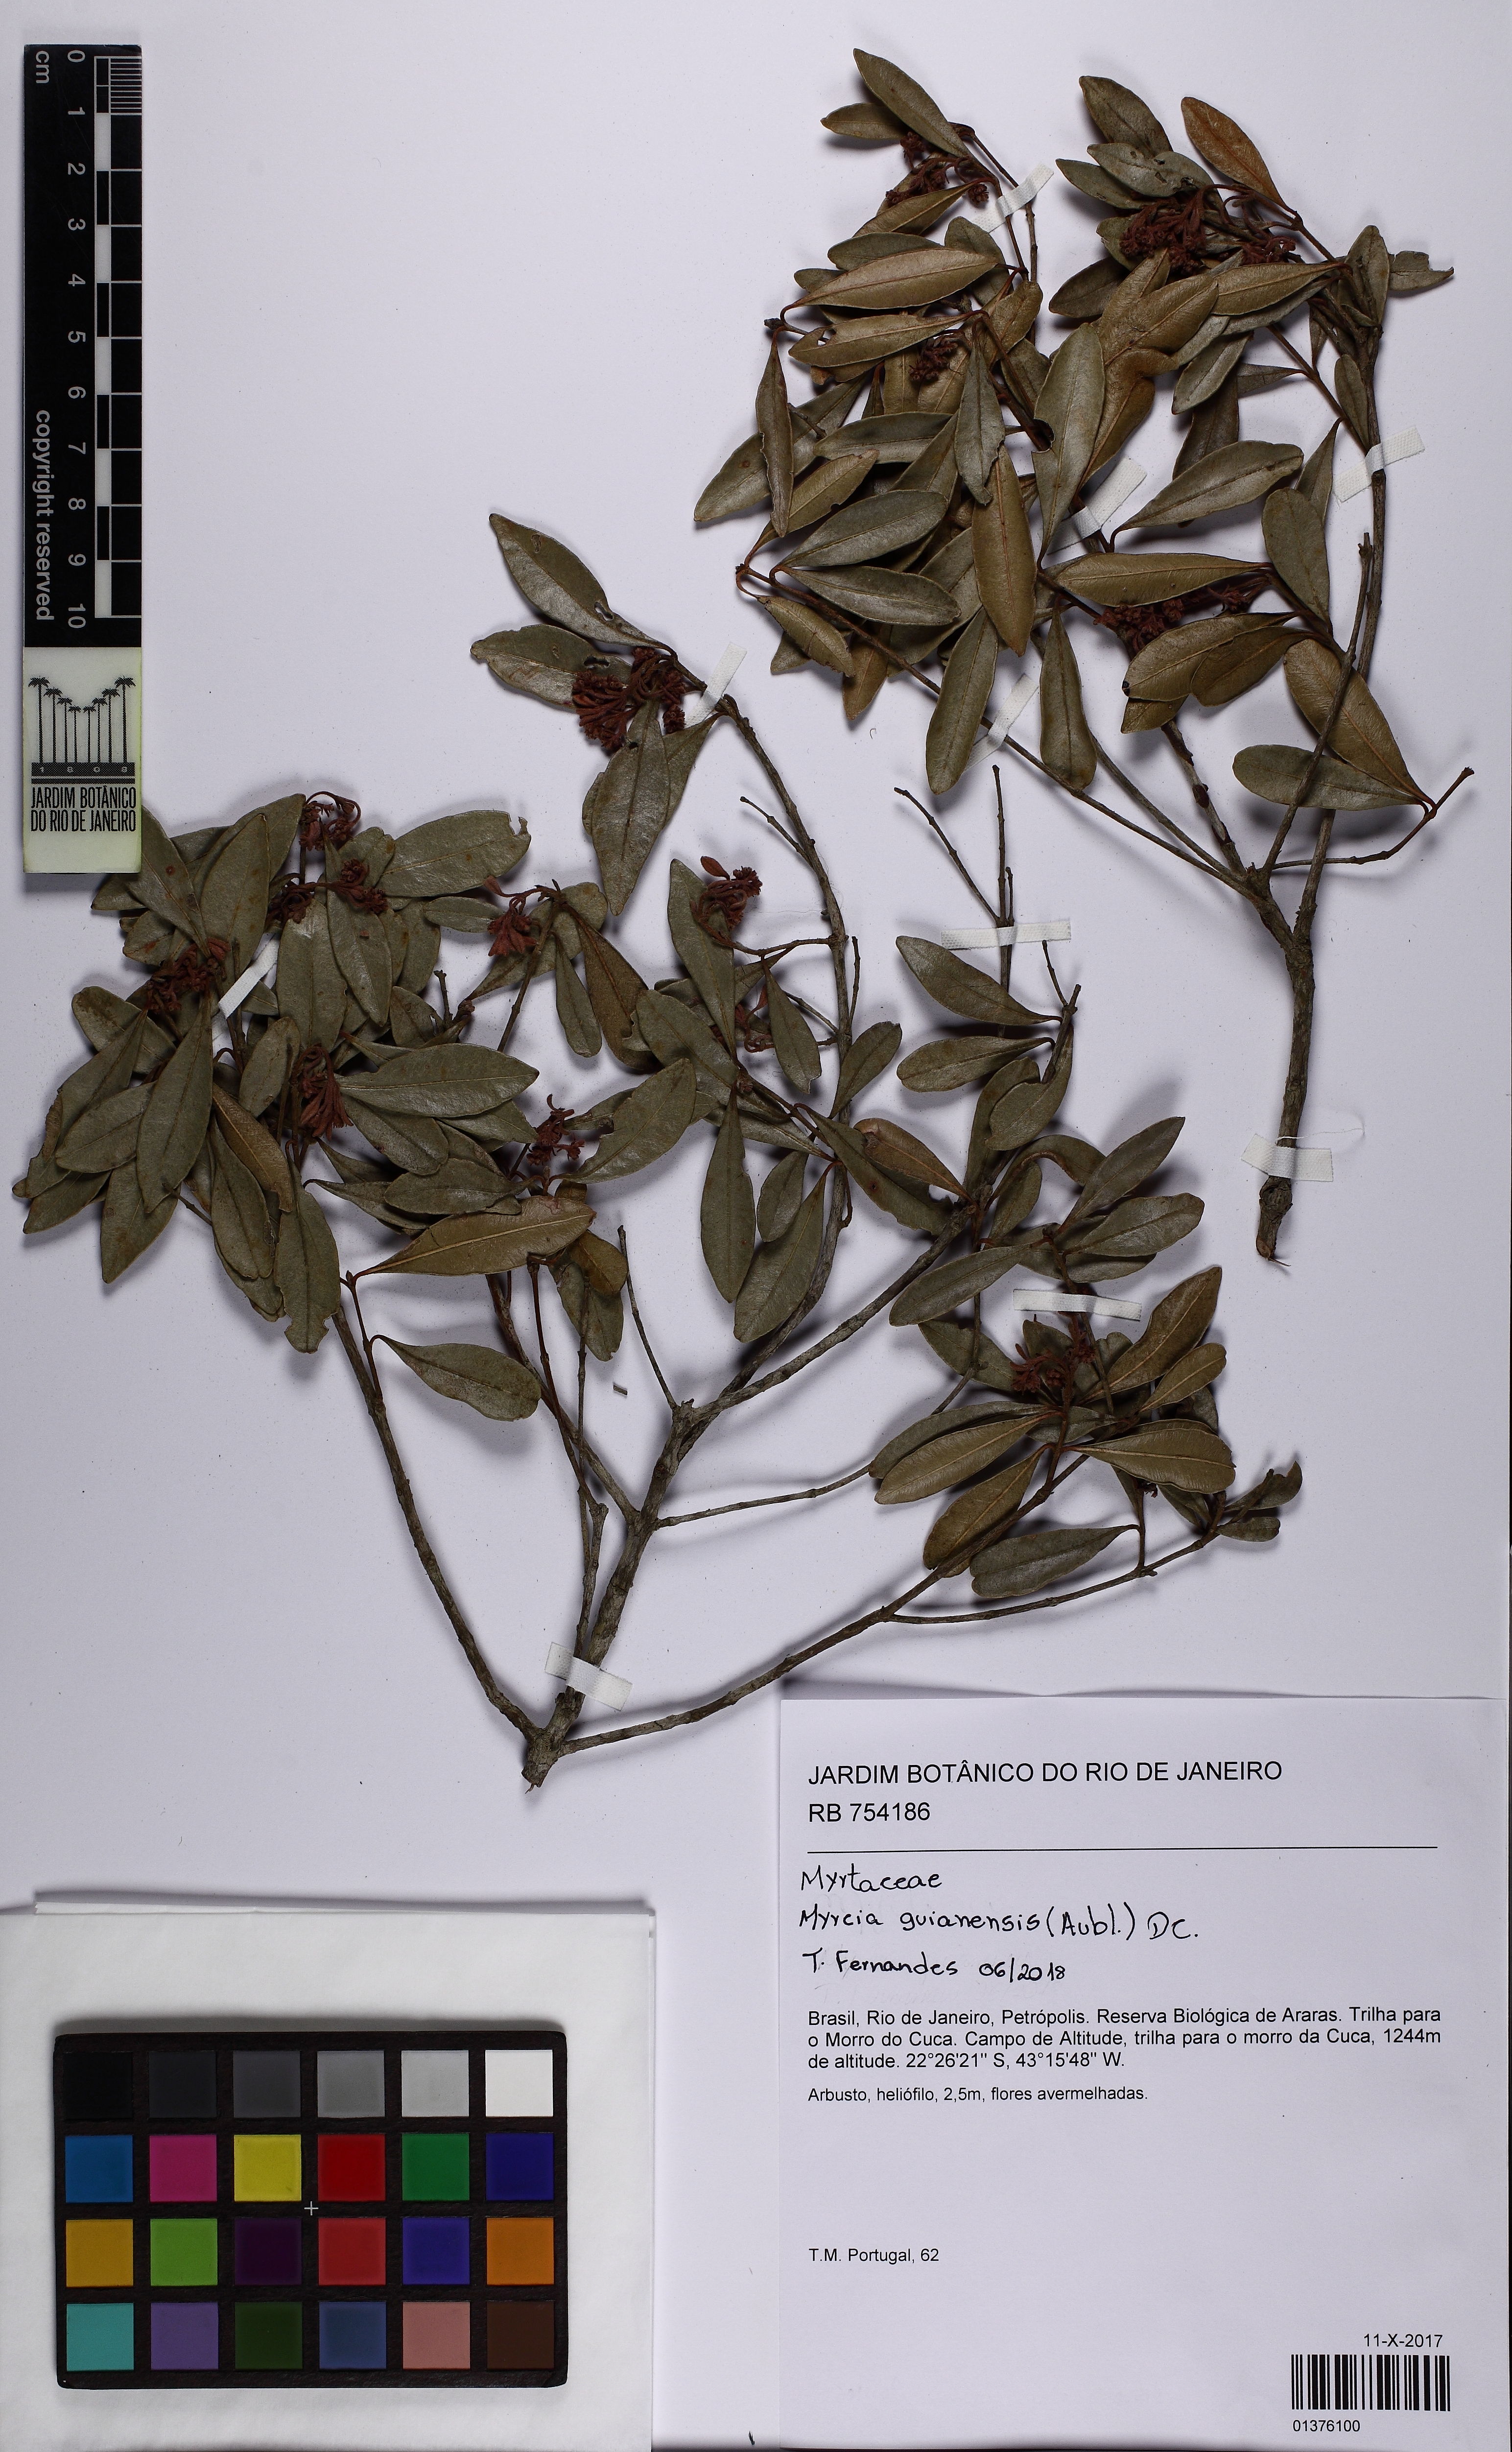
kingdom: Plantae
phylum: Tracheophyta
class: Magnoliopsida
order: Myrtales
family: Myrtaceae
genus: Myrcia
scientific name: Myrcia guianensis
